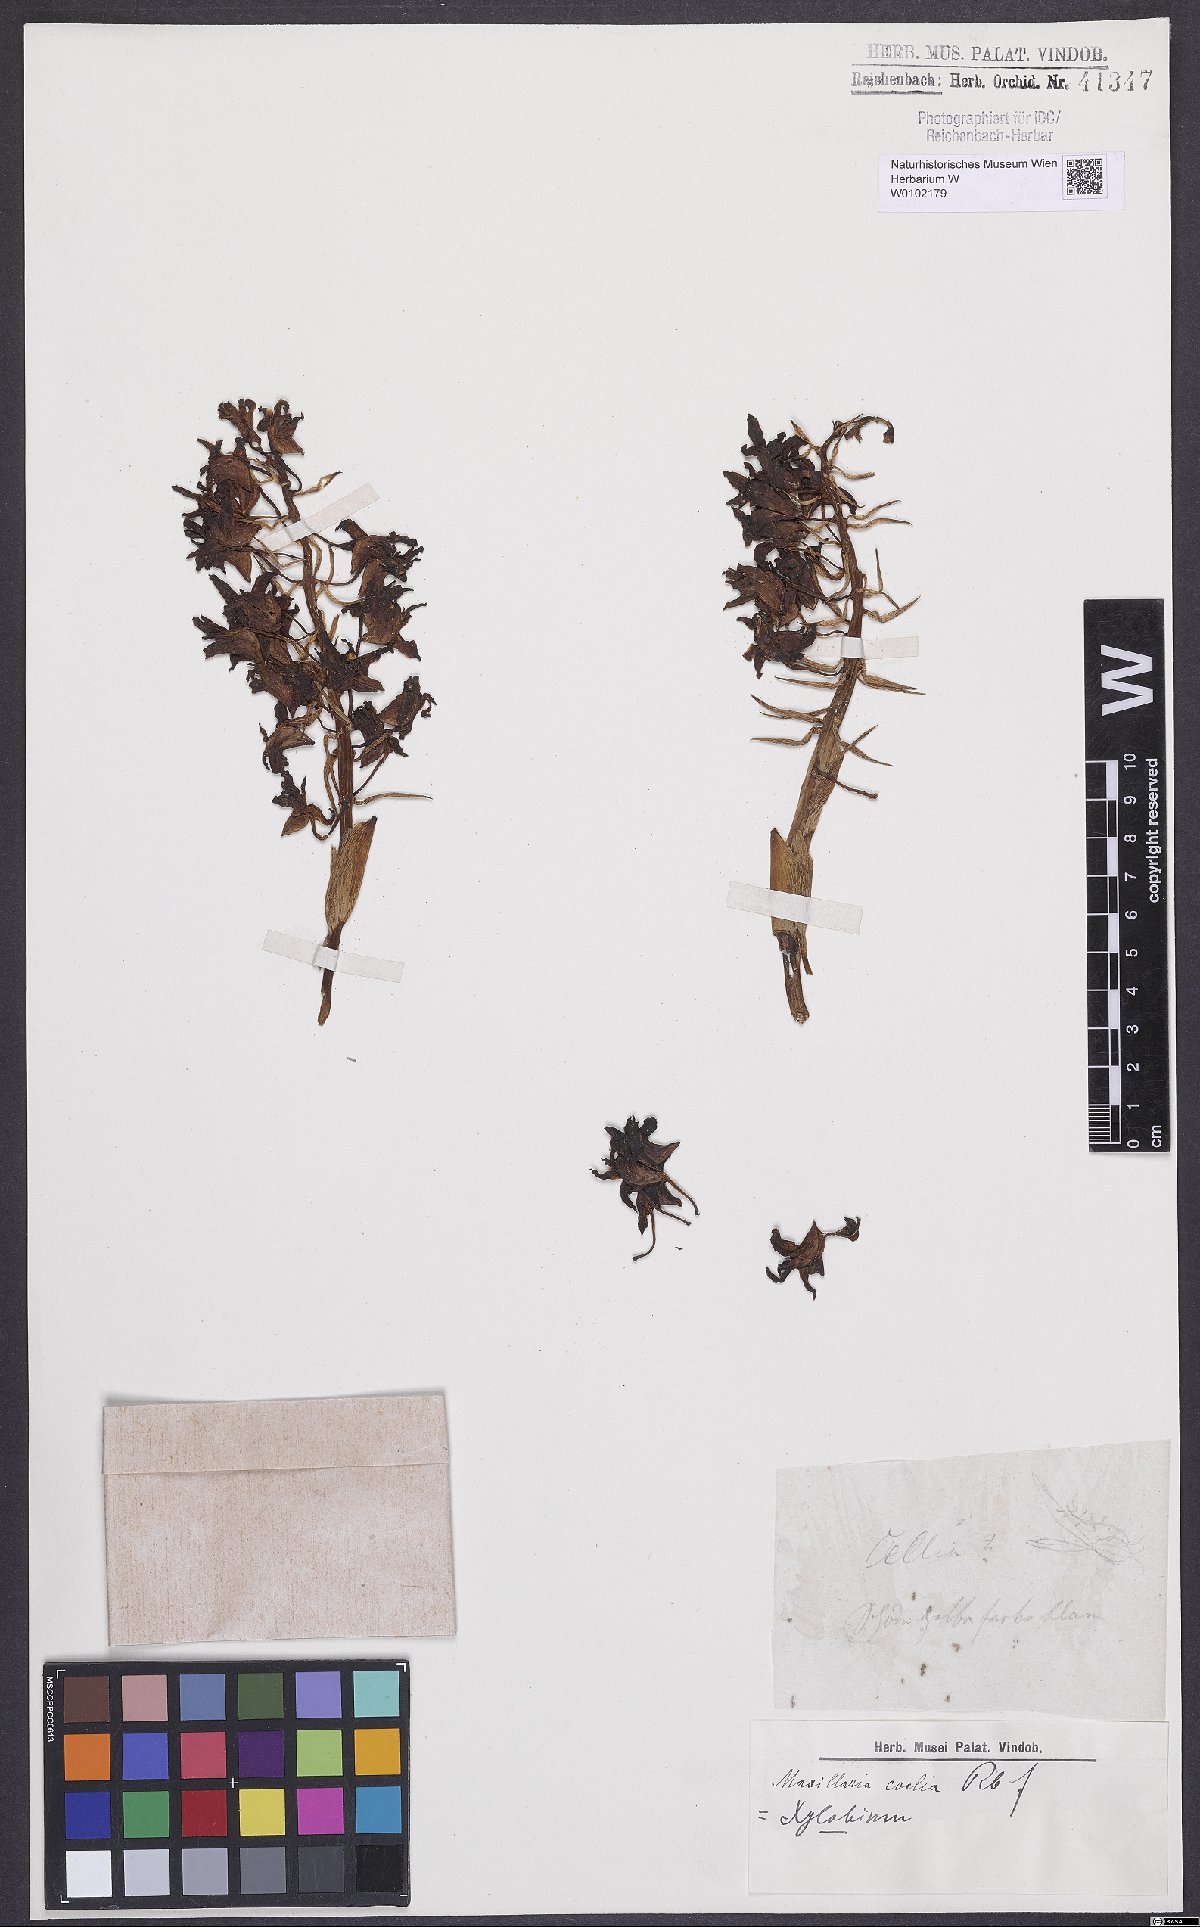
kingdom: Plantae
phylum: Tracheophyta
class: Liliopsida
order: Asparagales
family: Orchidaceae
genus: Xylobium
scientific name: Xylobium coelia
